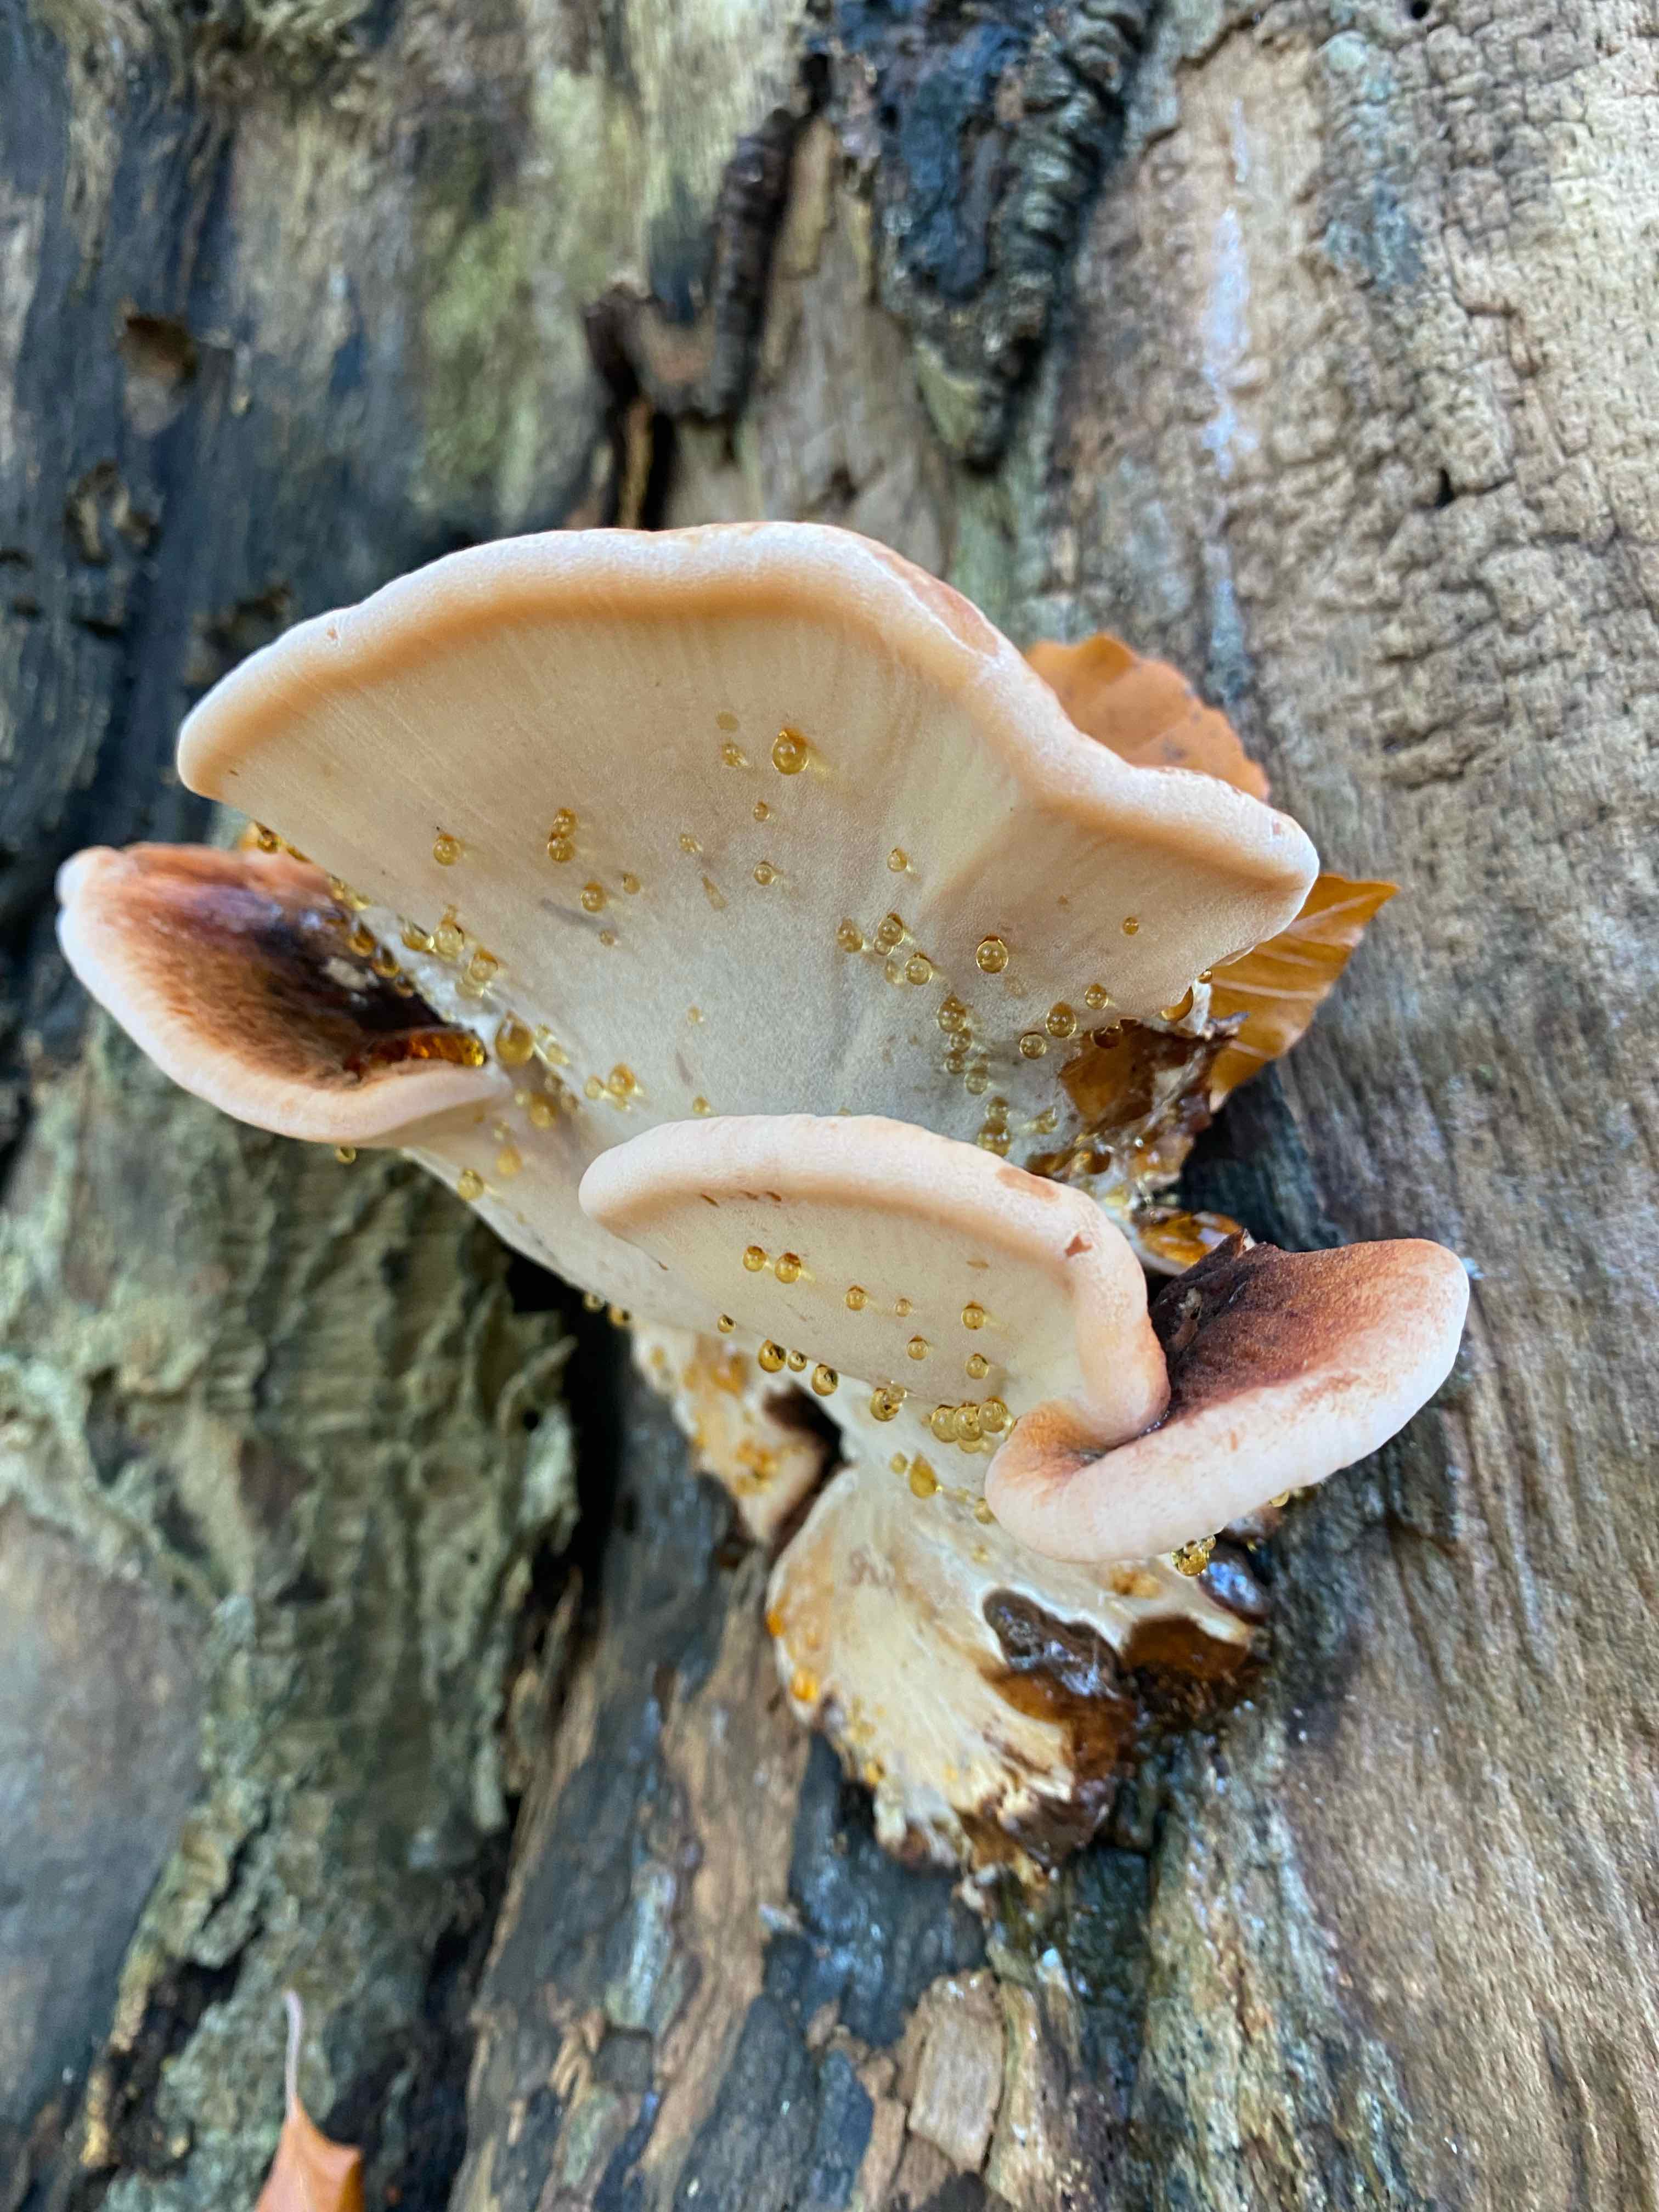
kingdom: Fungi
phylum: Basidiomycota
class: Agaricomycetes
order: Polyporales
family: Ischnodermataceae
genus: Ischnoderma
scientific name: Ischnoderma resinosum
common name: løv-tjæreporesvamp
